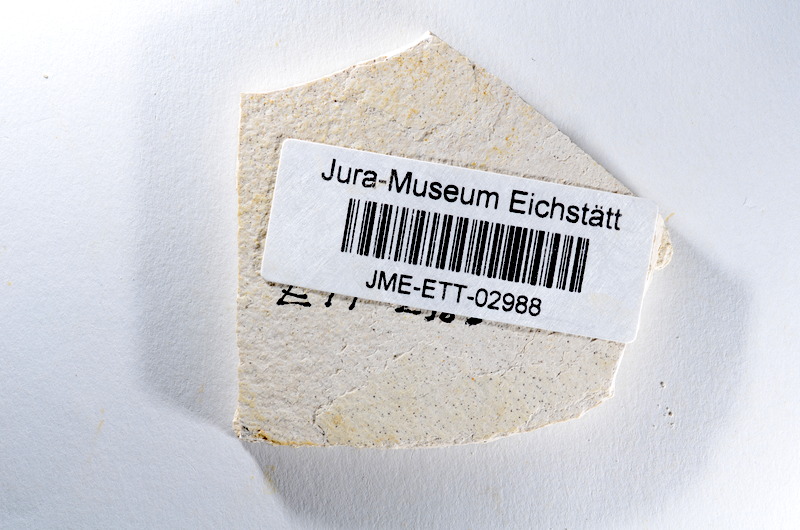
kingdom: Animalia
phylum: Chordata
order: Salmoniformes
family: Orthogonikleithridae
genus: Orthogonikleithrus
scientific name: Orthogonikleithrus hoelli
